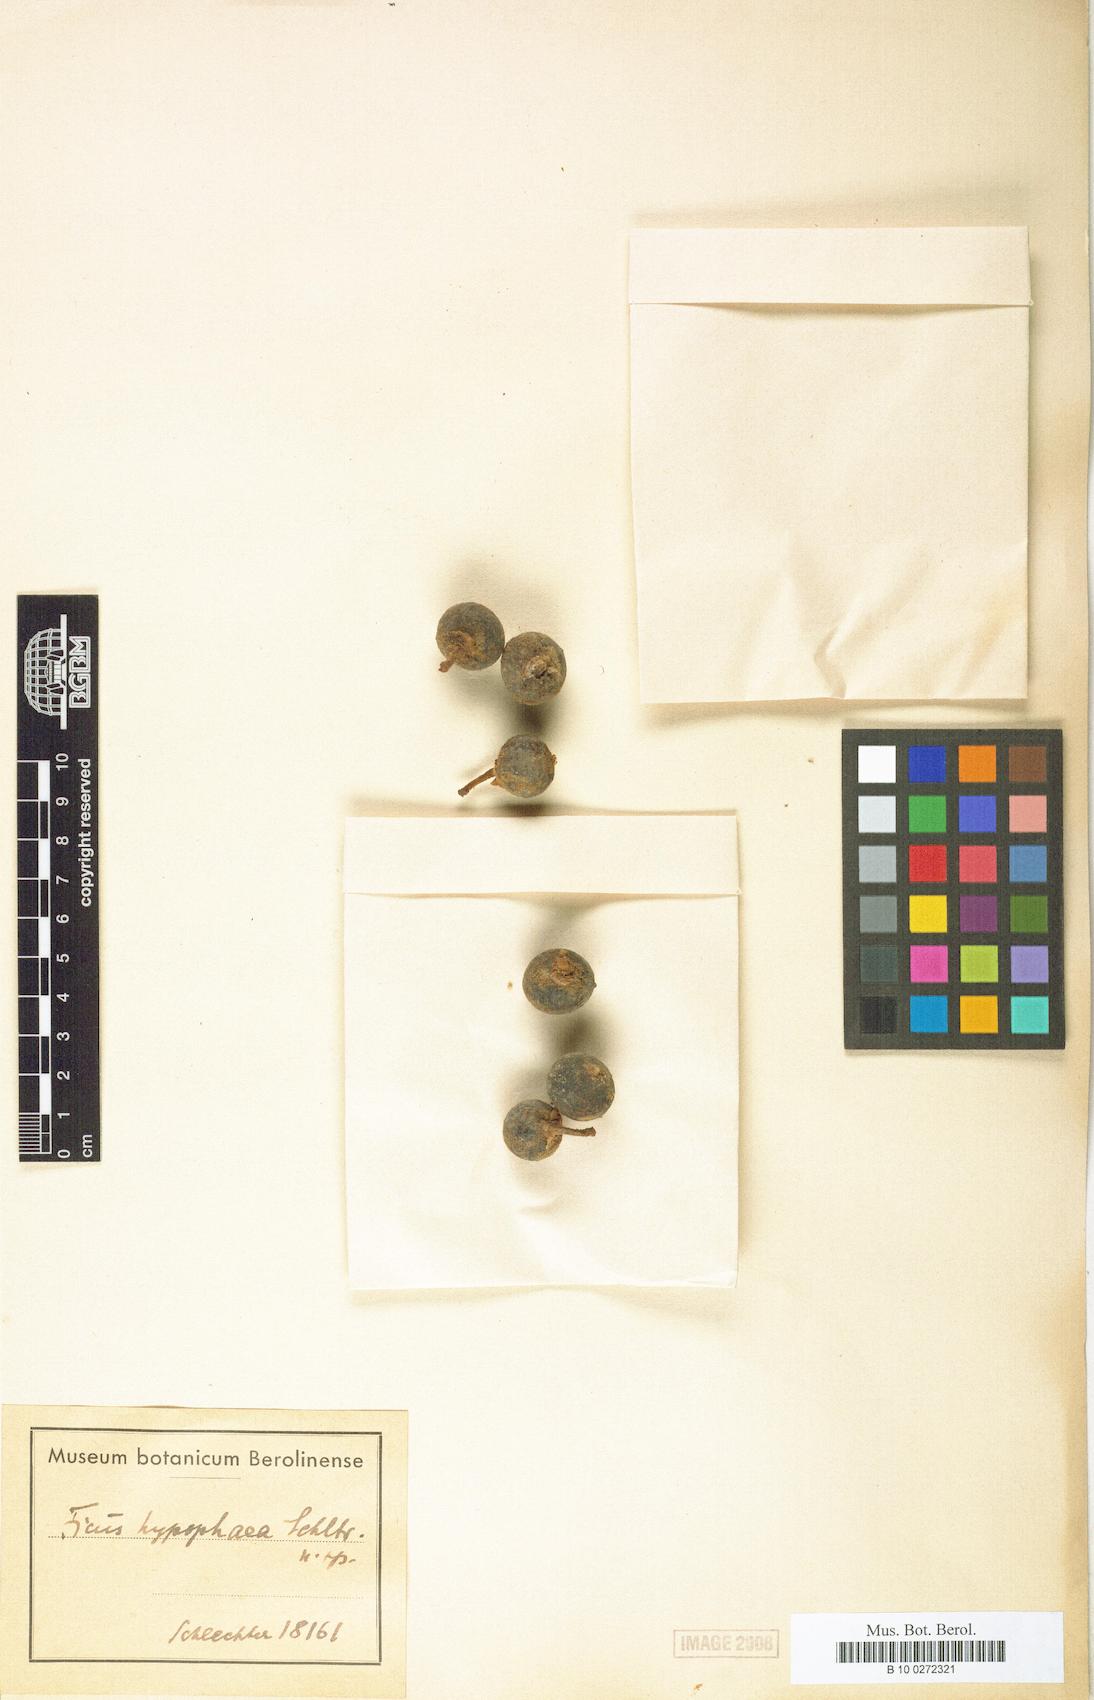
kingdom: Plantae
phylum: Tracheophyta
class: Magnoliopsida
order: Rosales
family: Moraceae
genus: Ficus
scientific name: Ficus hypophaea
